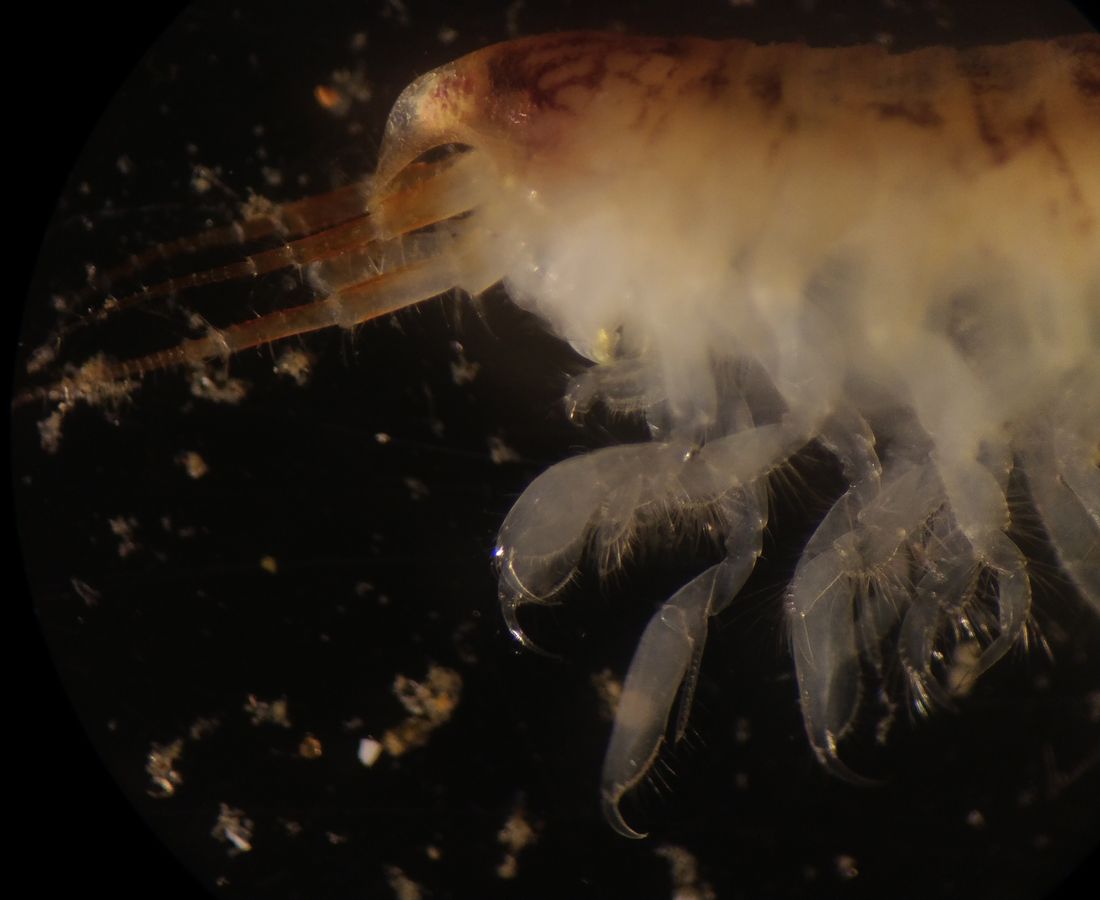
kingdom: Animalia
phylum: Arthropoda
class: Malacostraca
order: Amphipoda
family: Oedicerotidae
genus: Rostroculodes
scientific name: Rostroculodes borealis
